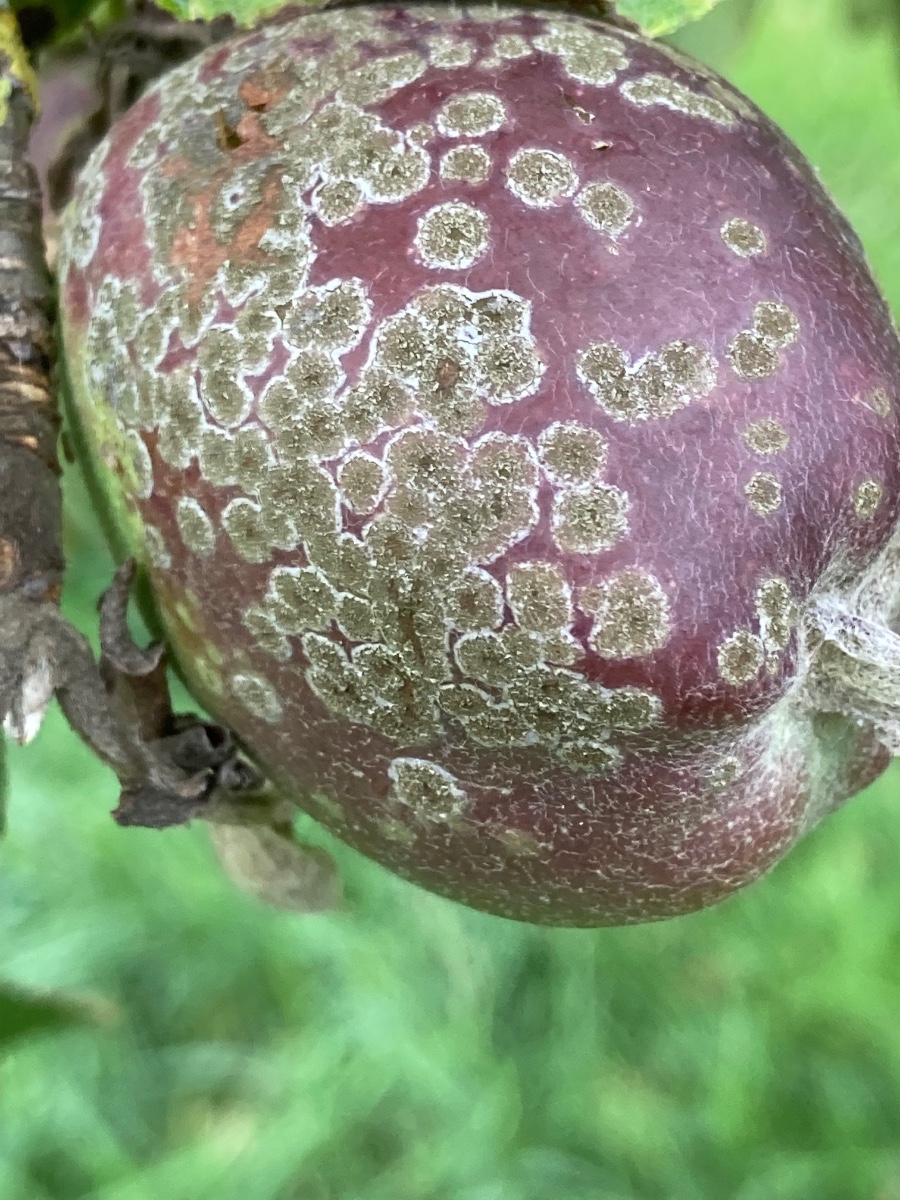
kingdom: Fungi
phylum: Ascomycota
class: Dothideomycetes
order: Venturiales
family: Venturiaceae
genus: Venturia
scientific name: Venturia inaequalis
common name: Apple scab
